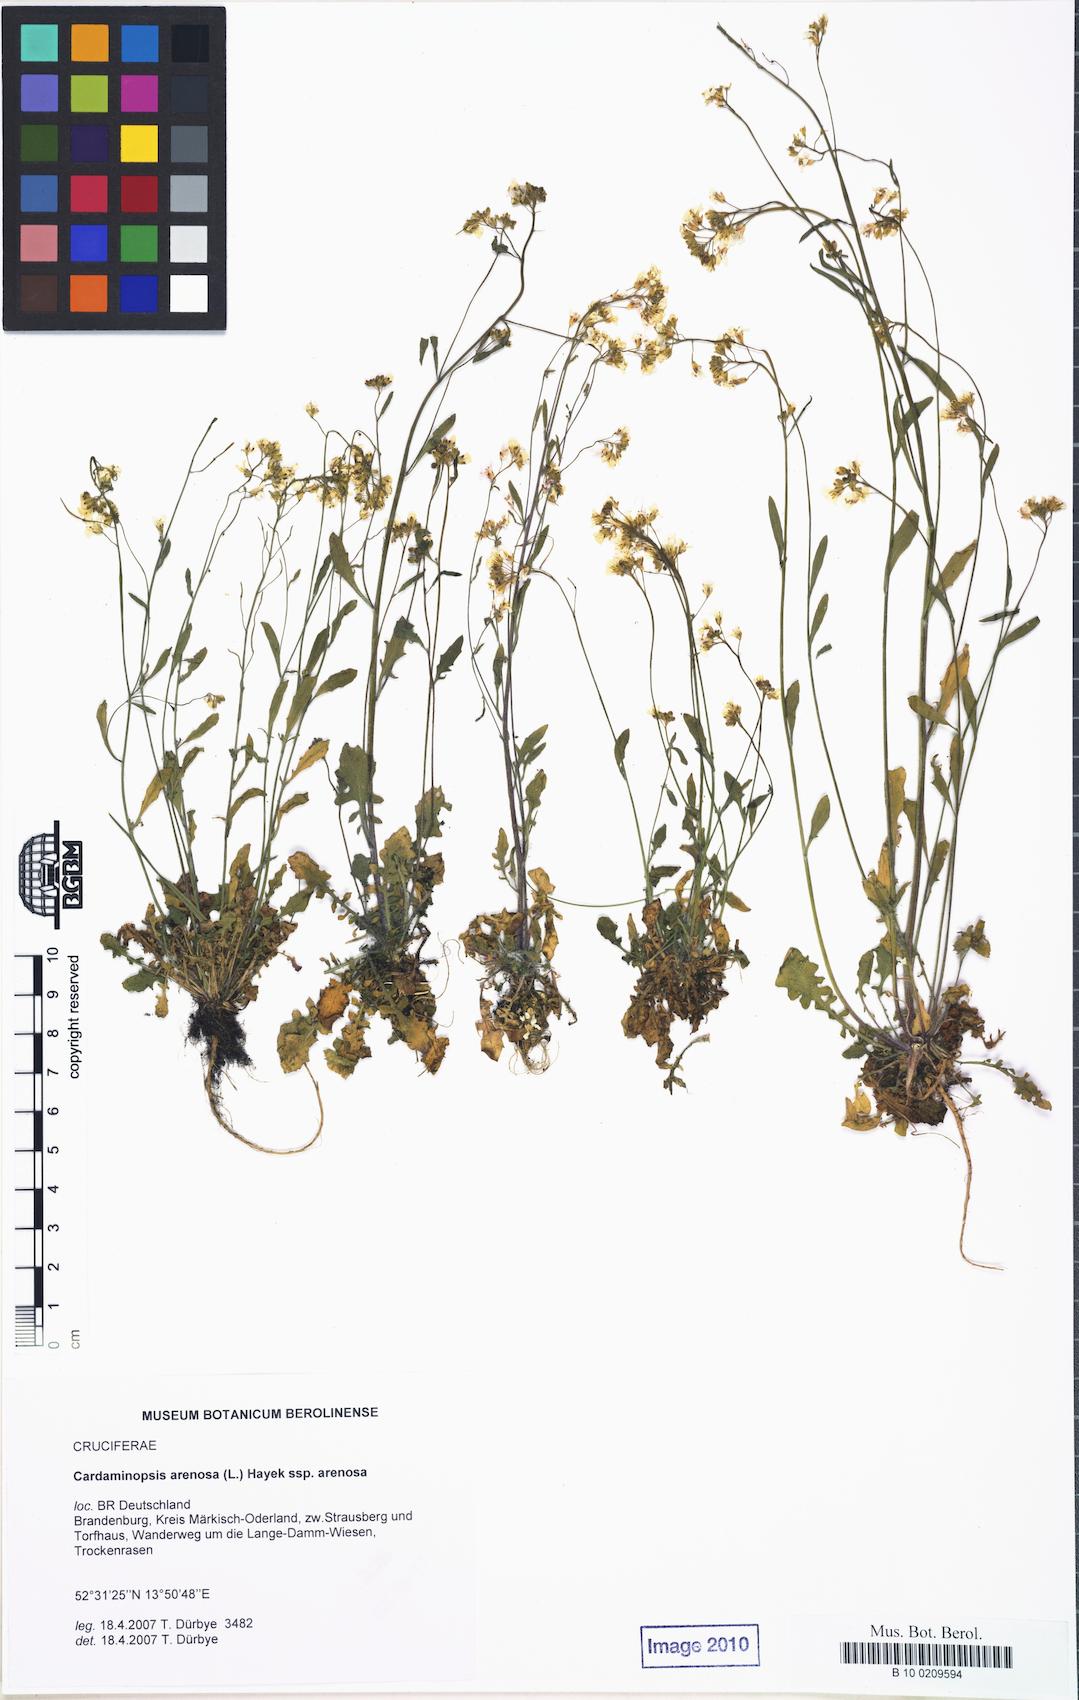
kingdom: Plantae
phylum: Tracheophyta
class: Magnoliopsida
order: Brassicales
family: Brassicaceae
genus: Arabidopsis
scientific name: Arabidopsis arenosa
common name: Sand rock-cress
